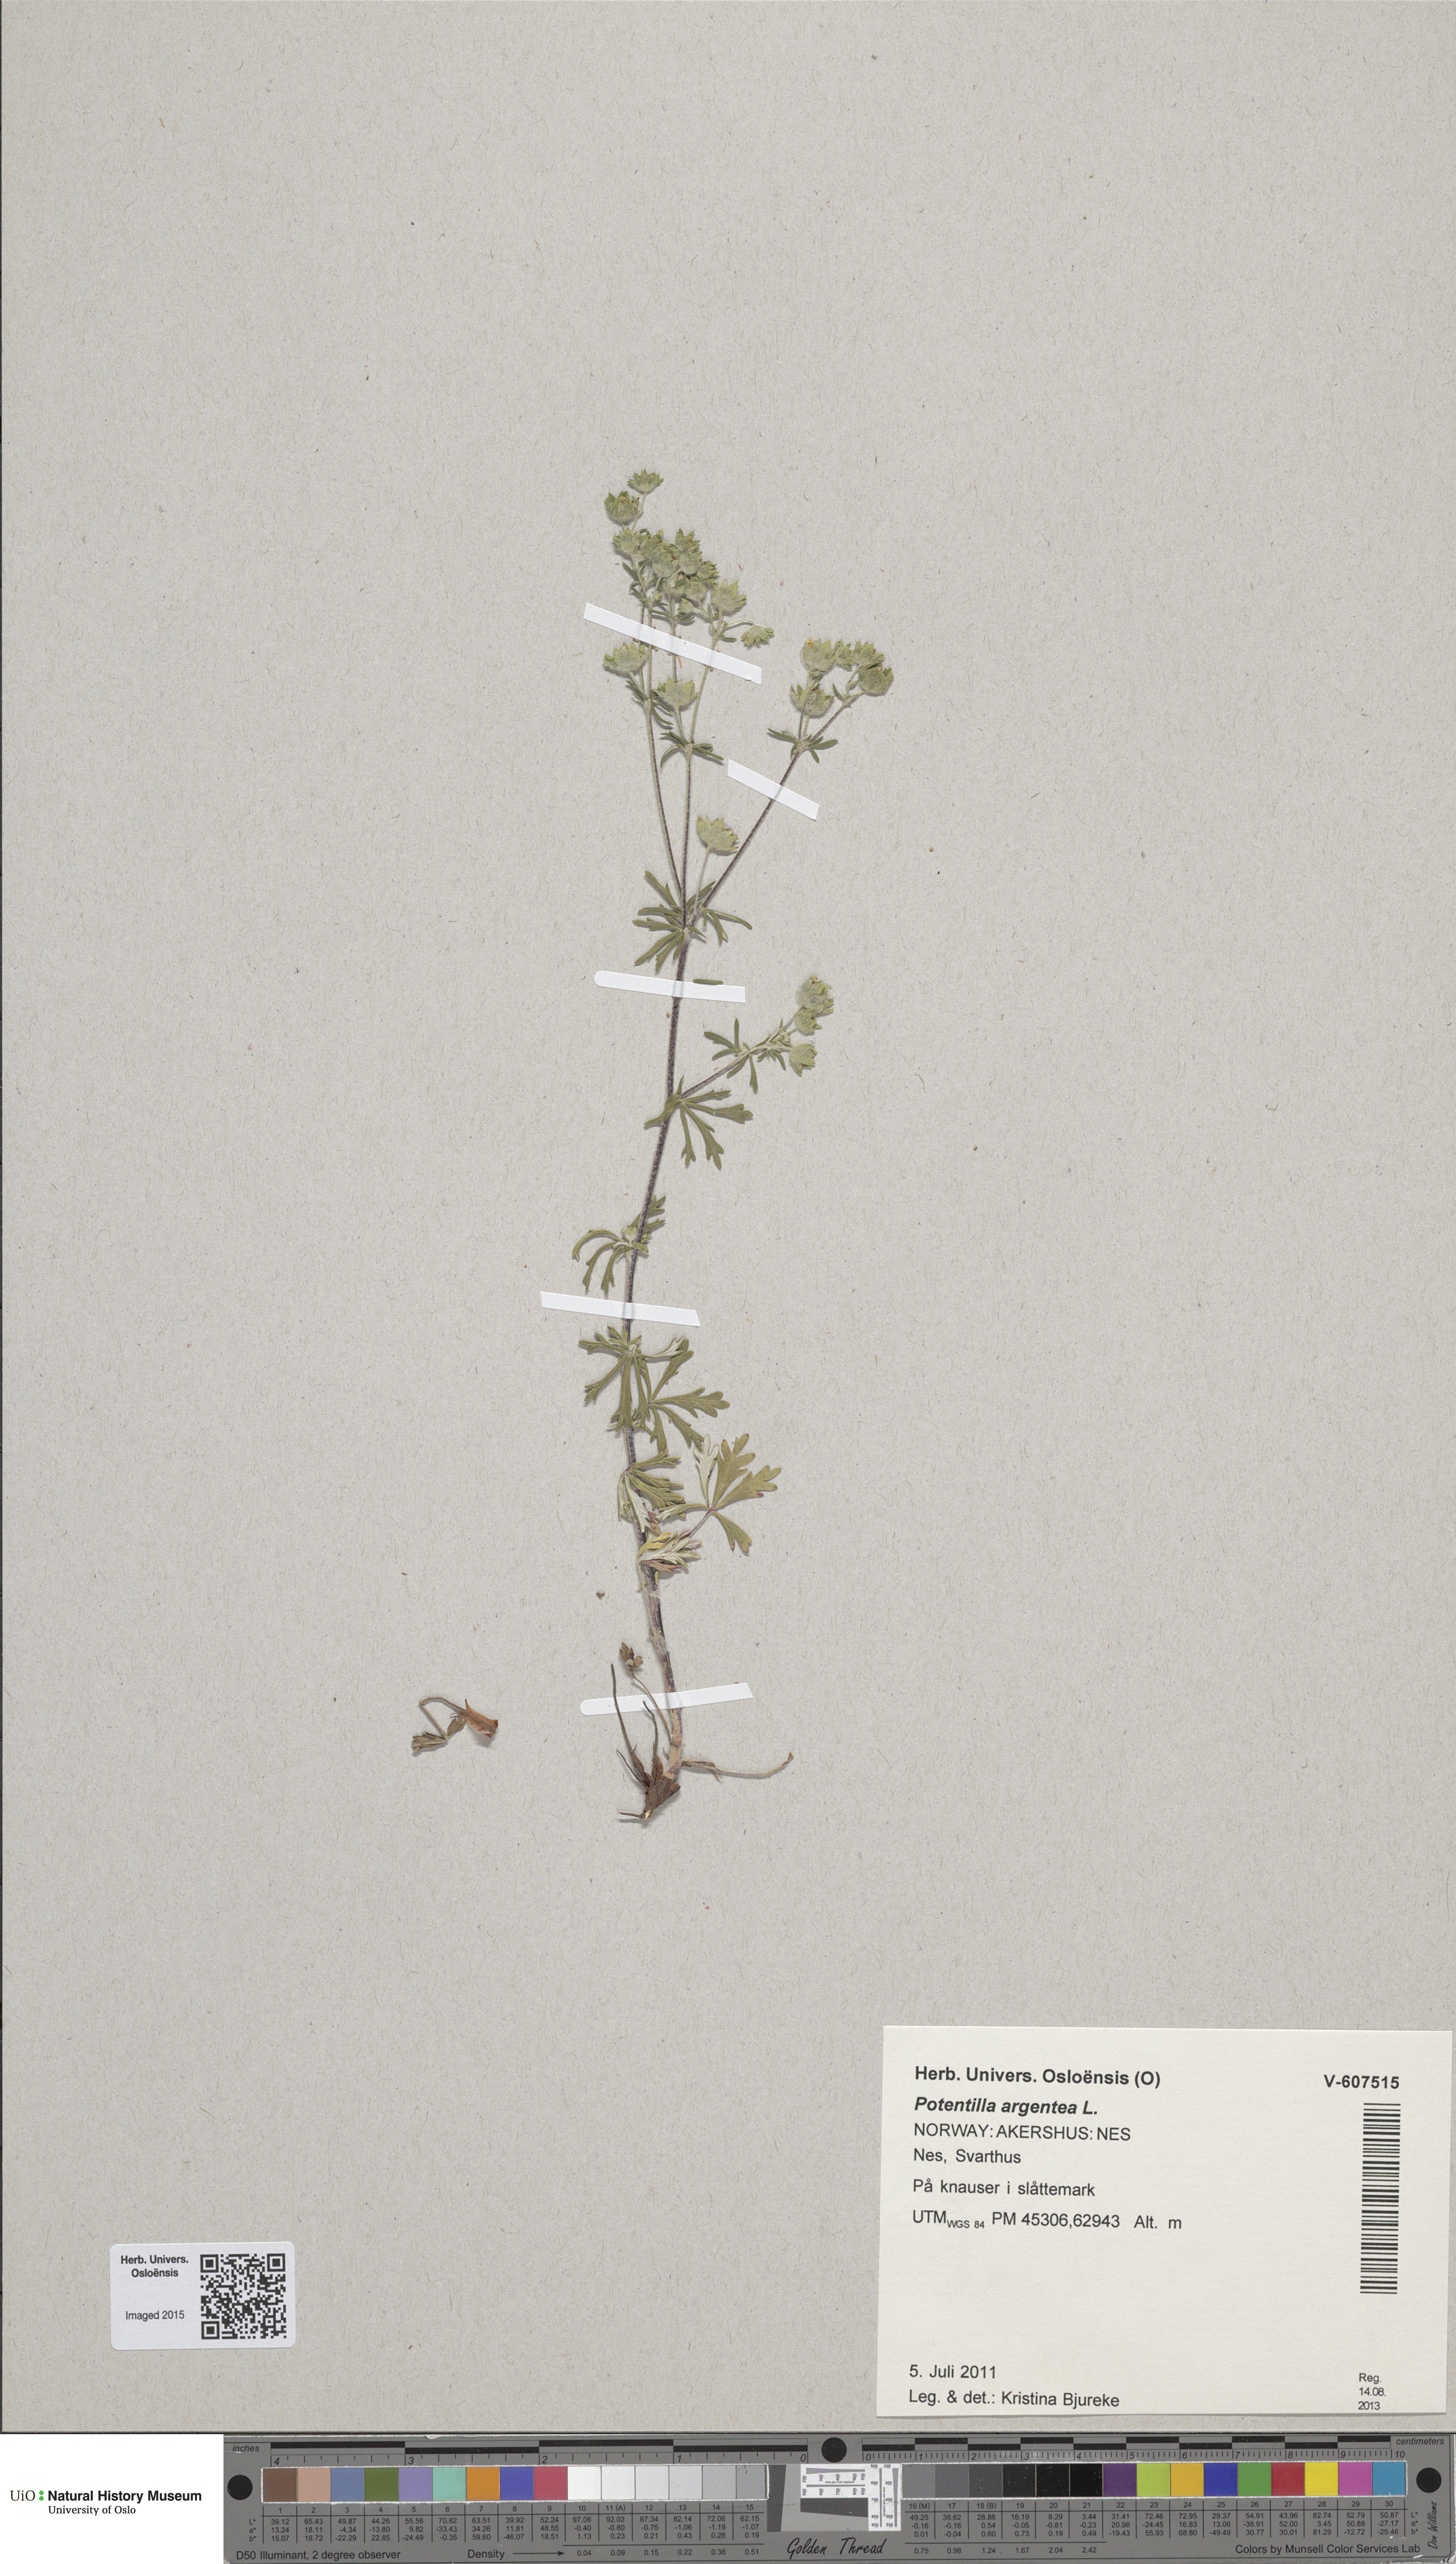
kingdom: Plantae
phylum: Tracheophyta
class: Magnoliopsida
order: Rosales
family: Rosaceae
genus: Potentilla
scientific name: Potentilla argentea
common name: Hoary cinquefoil
